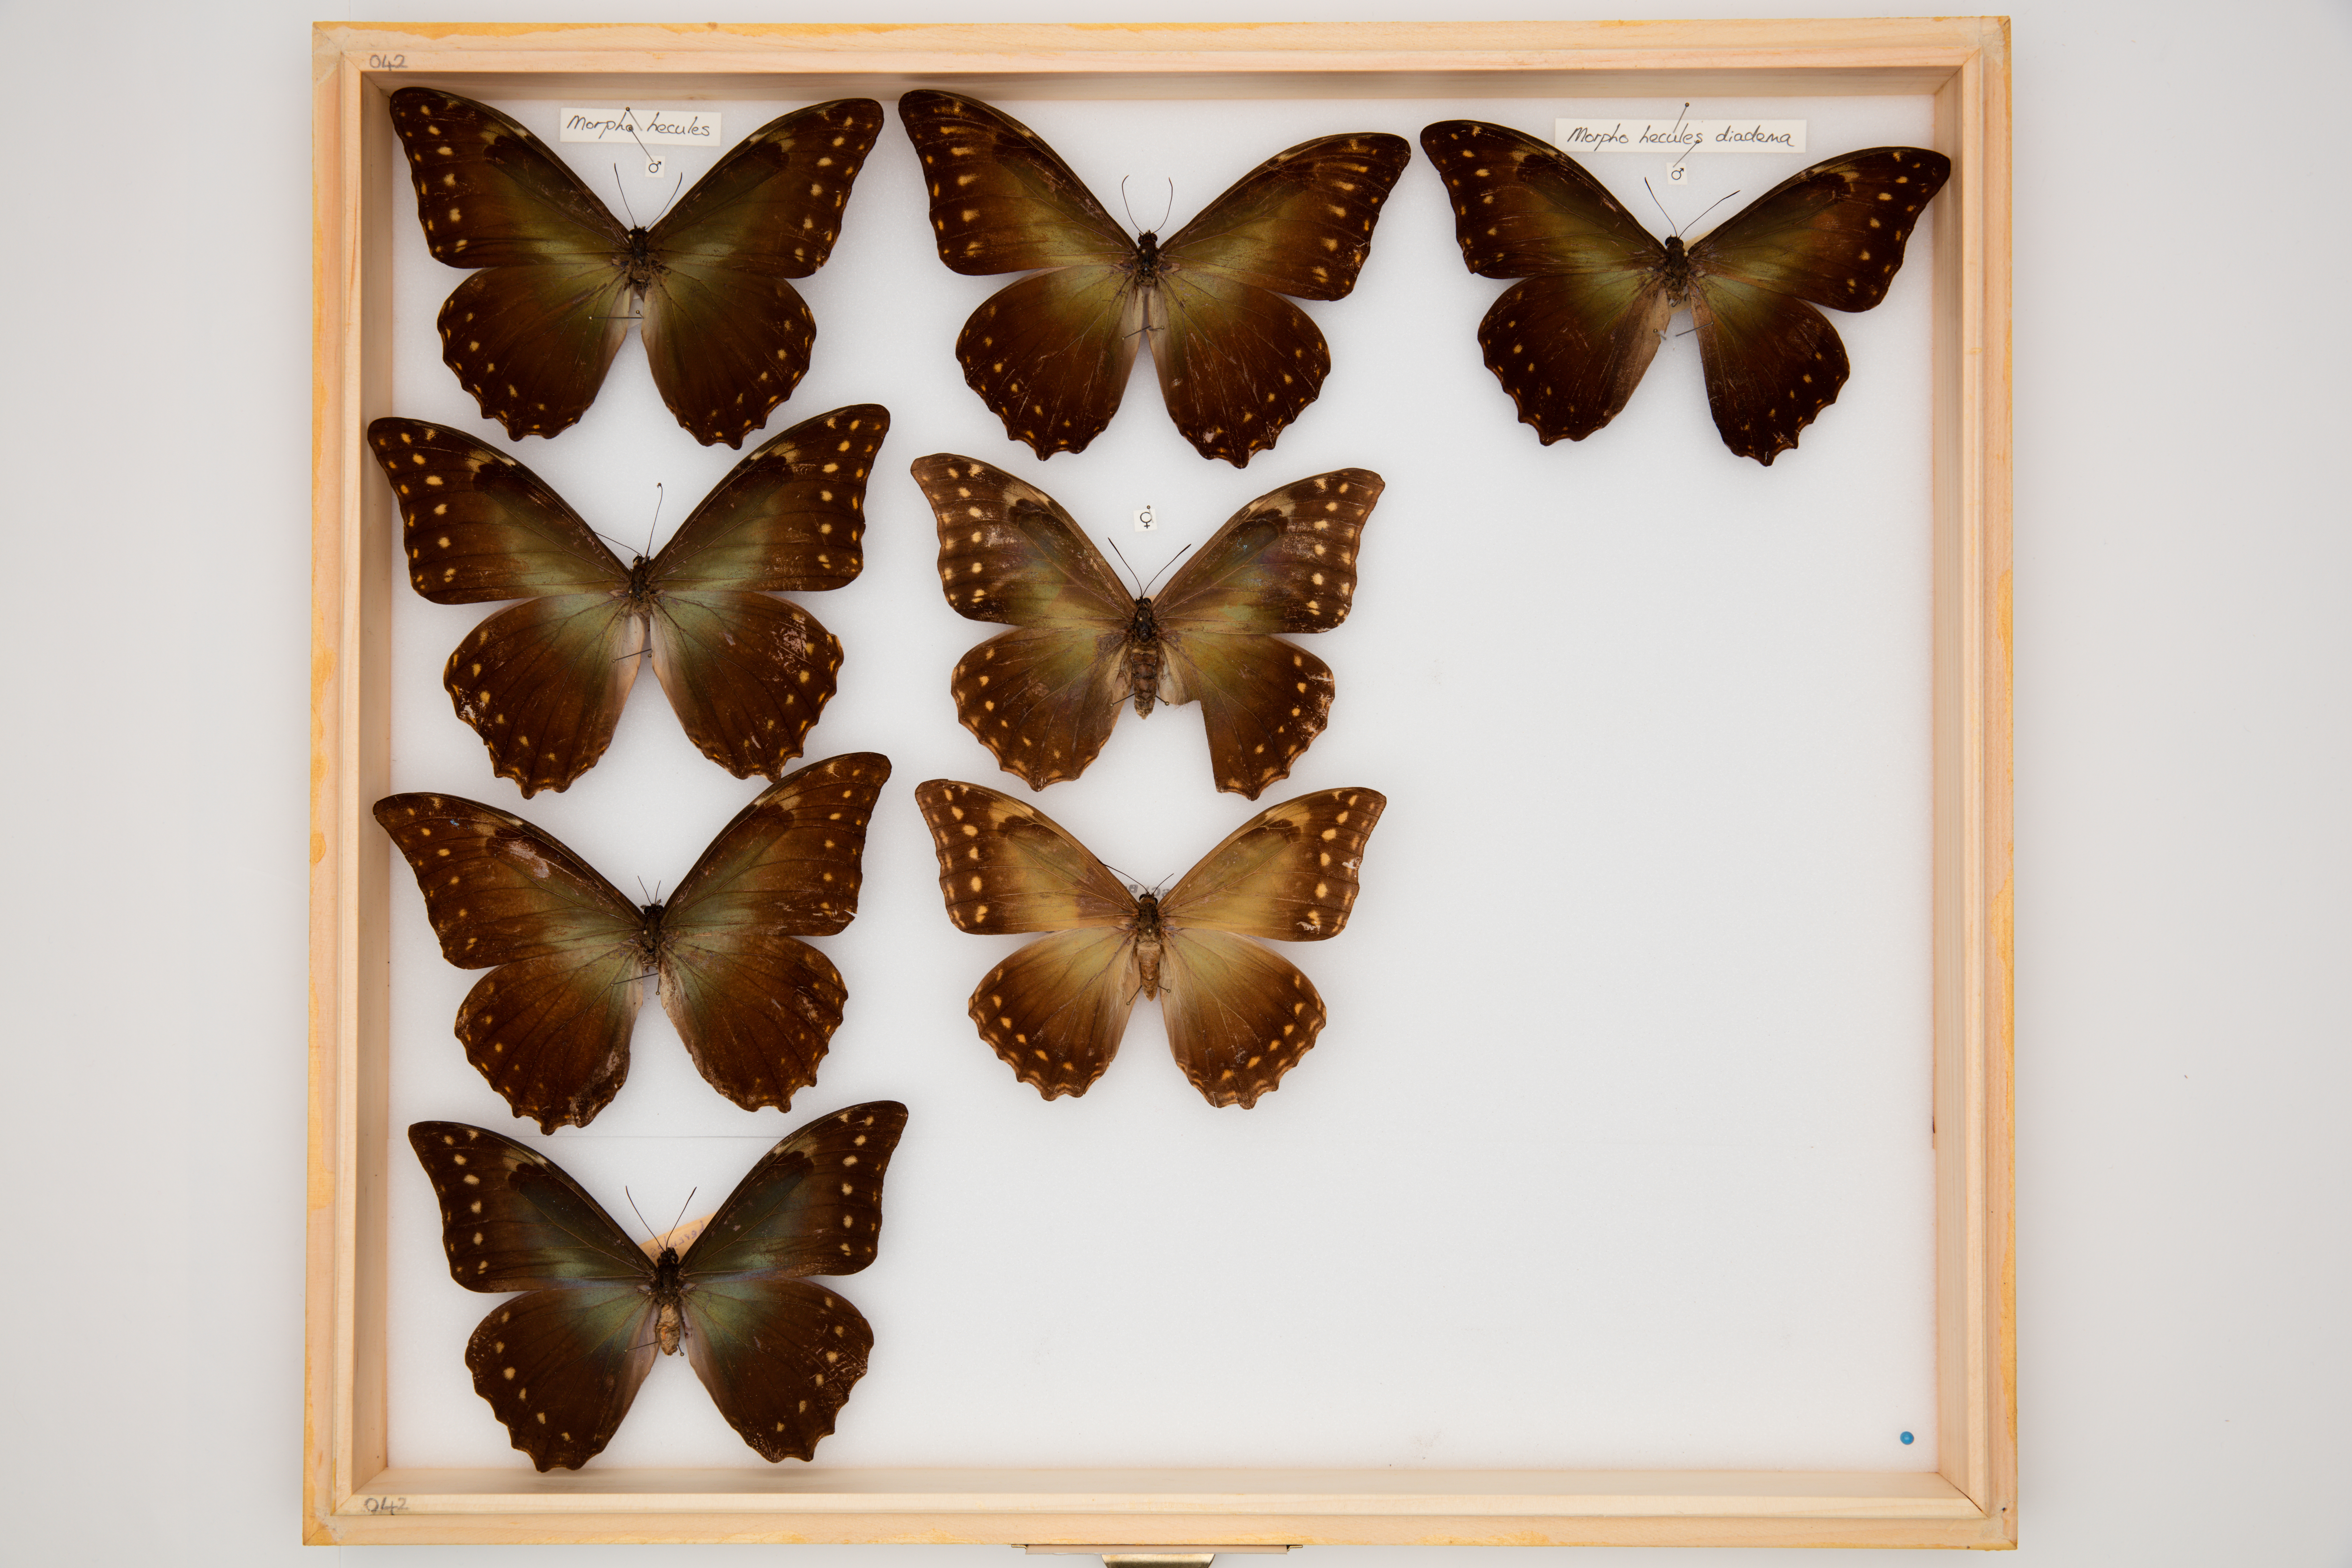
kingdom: Animalia
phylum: Arthropoda
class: Insecta
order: Lepidoptera
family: Nymphalidae
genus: Morpho
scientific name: Morpho hercules
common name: Hercules morpho
